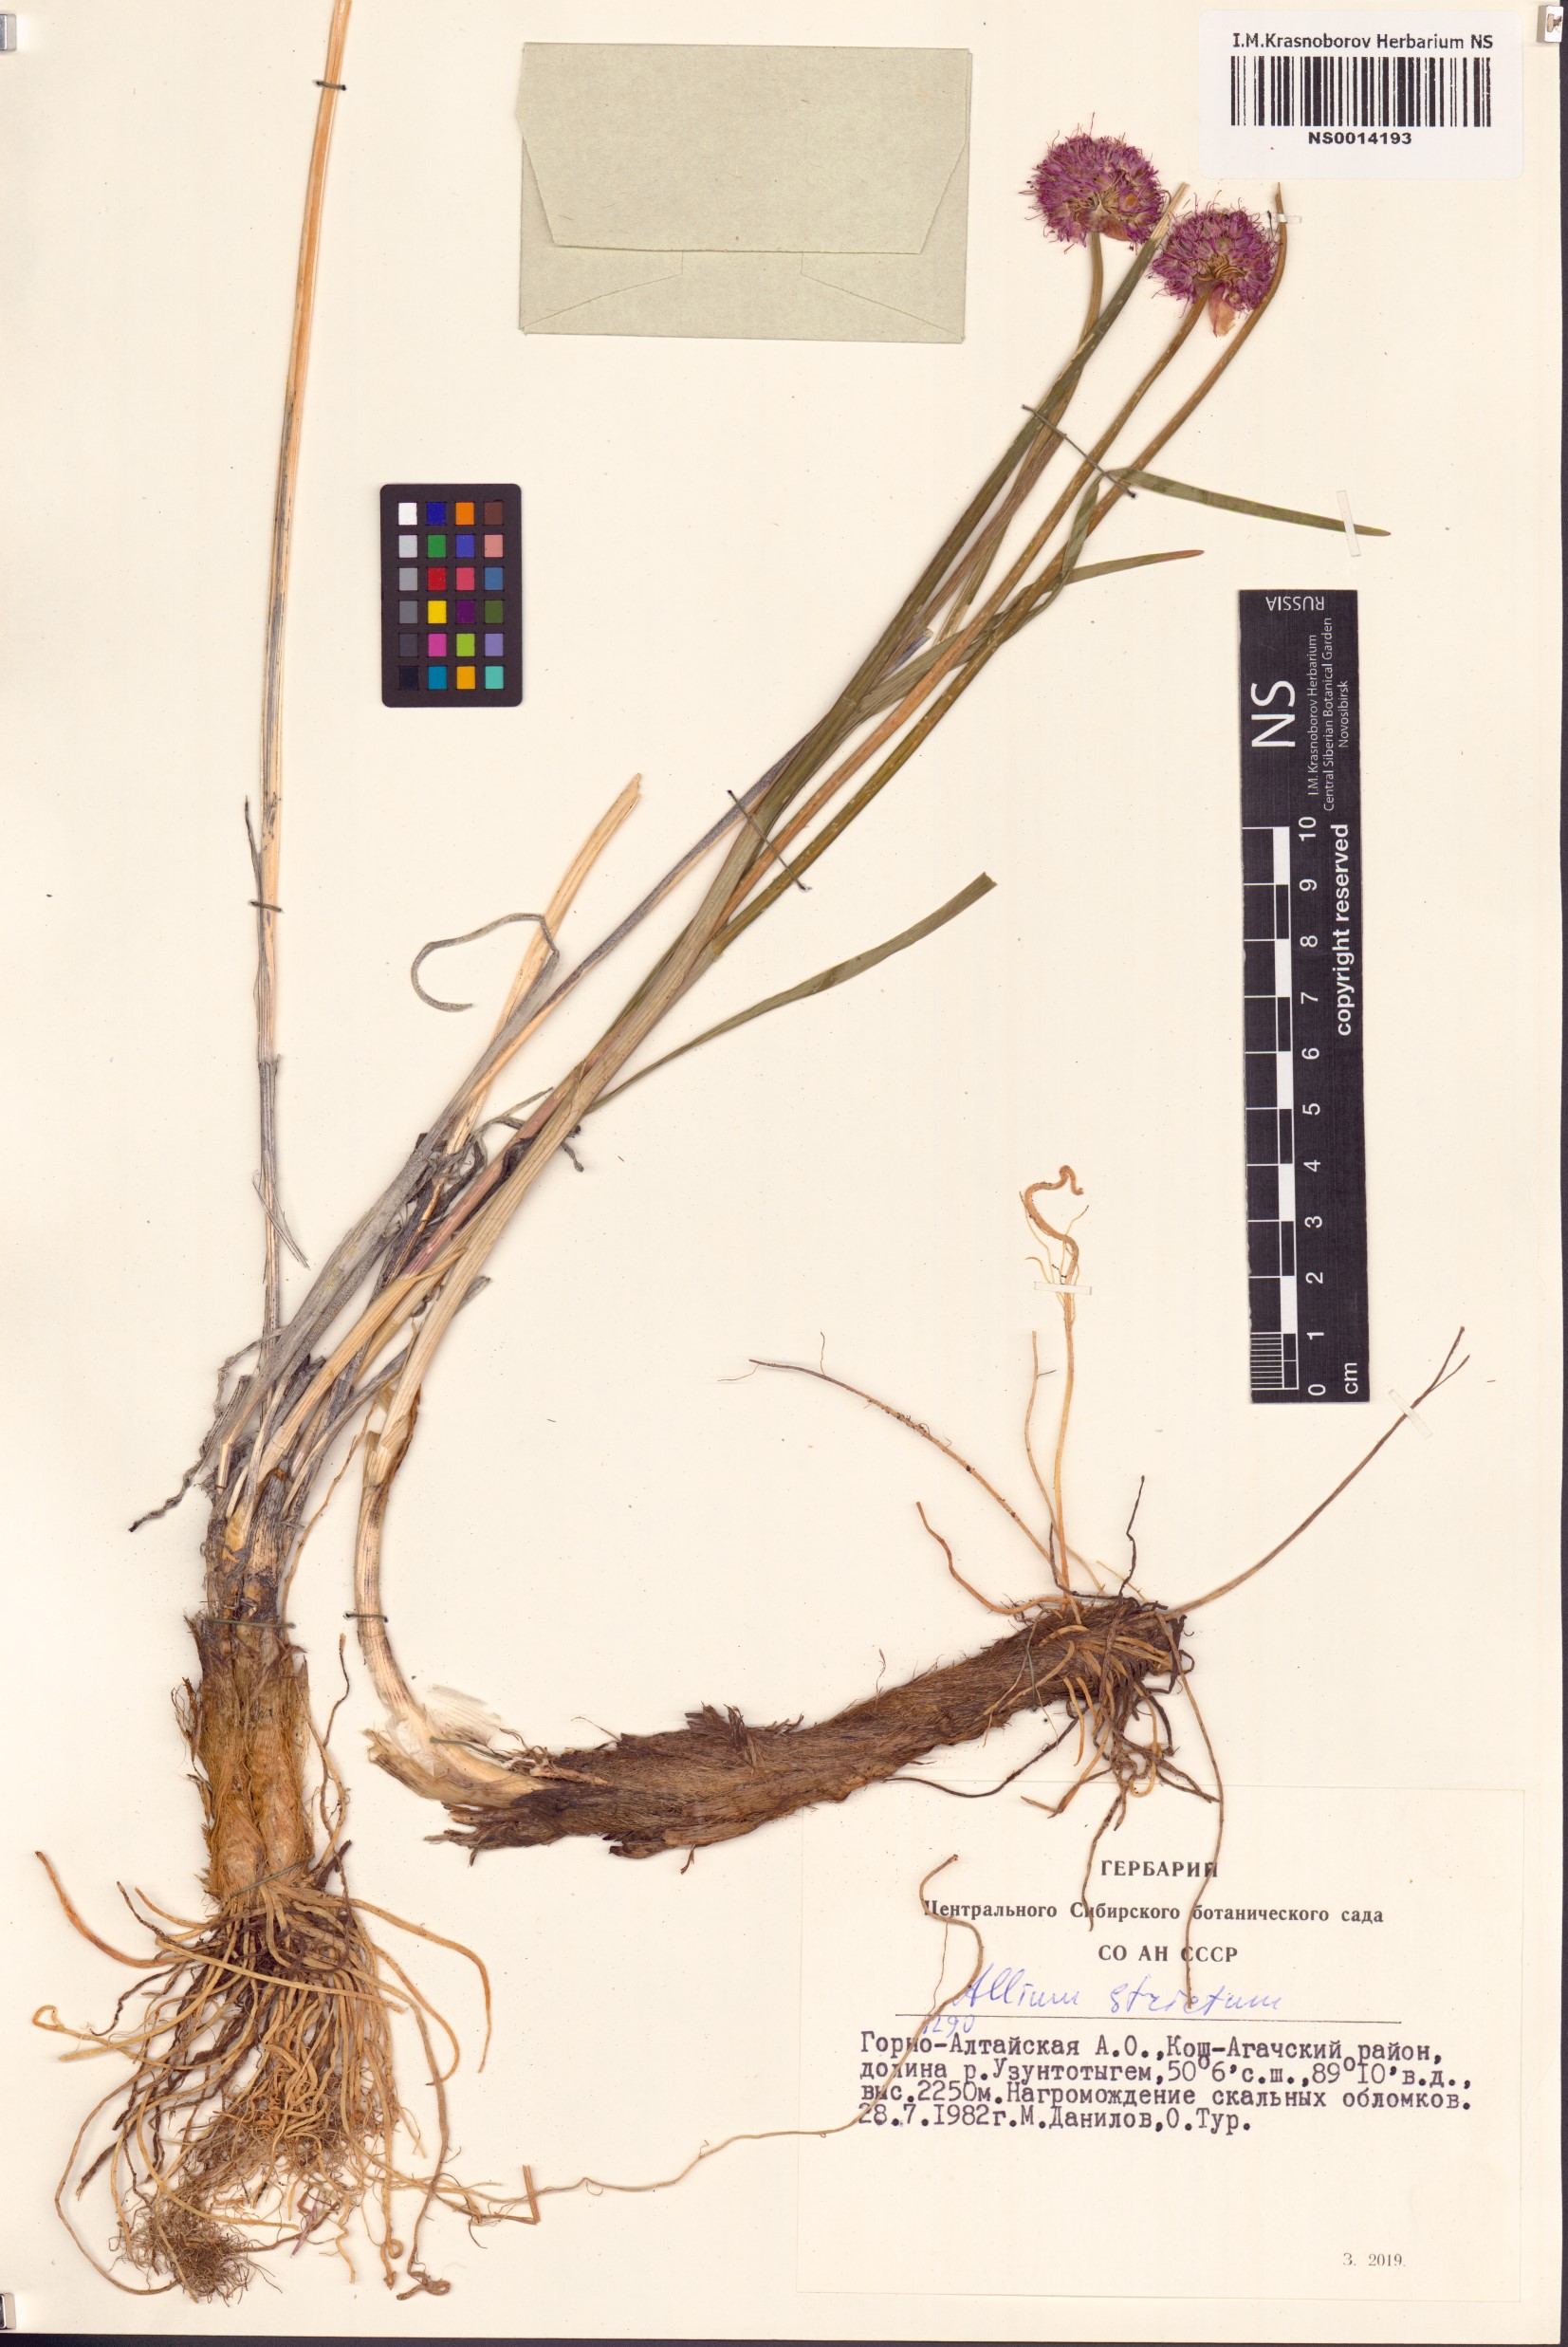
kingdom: Plantae
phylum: Tracheophyta
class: Liliopsida
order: Asparagales
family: Amaryllidaceae
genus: Allium
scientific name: Allium strictum
